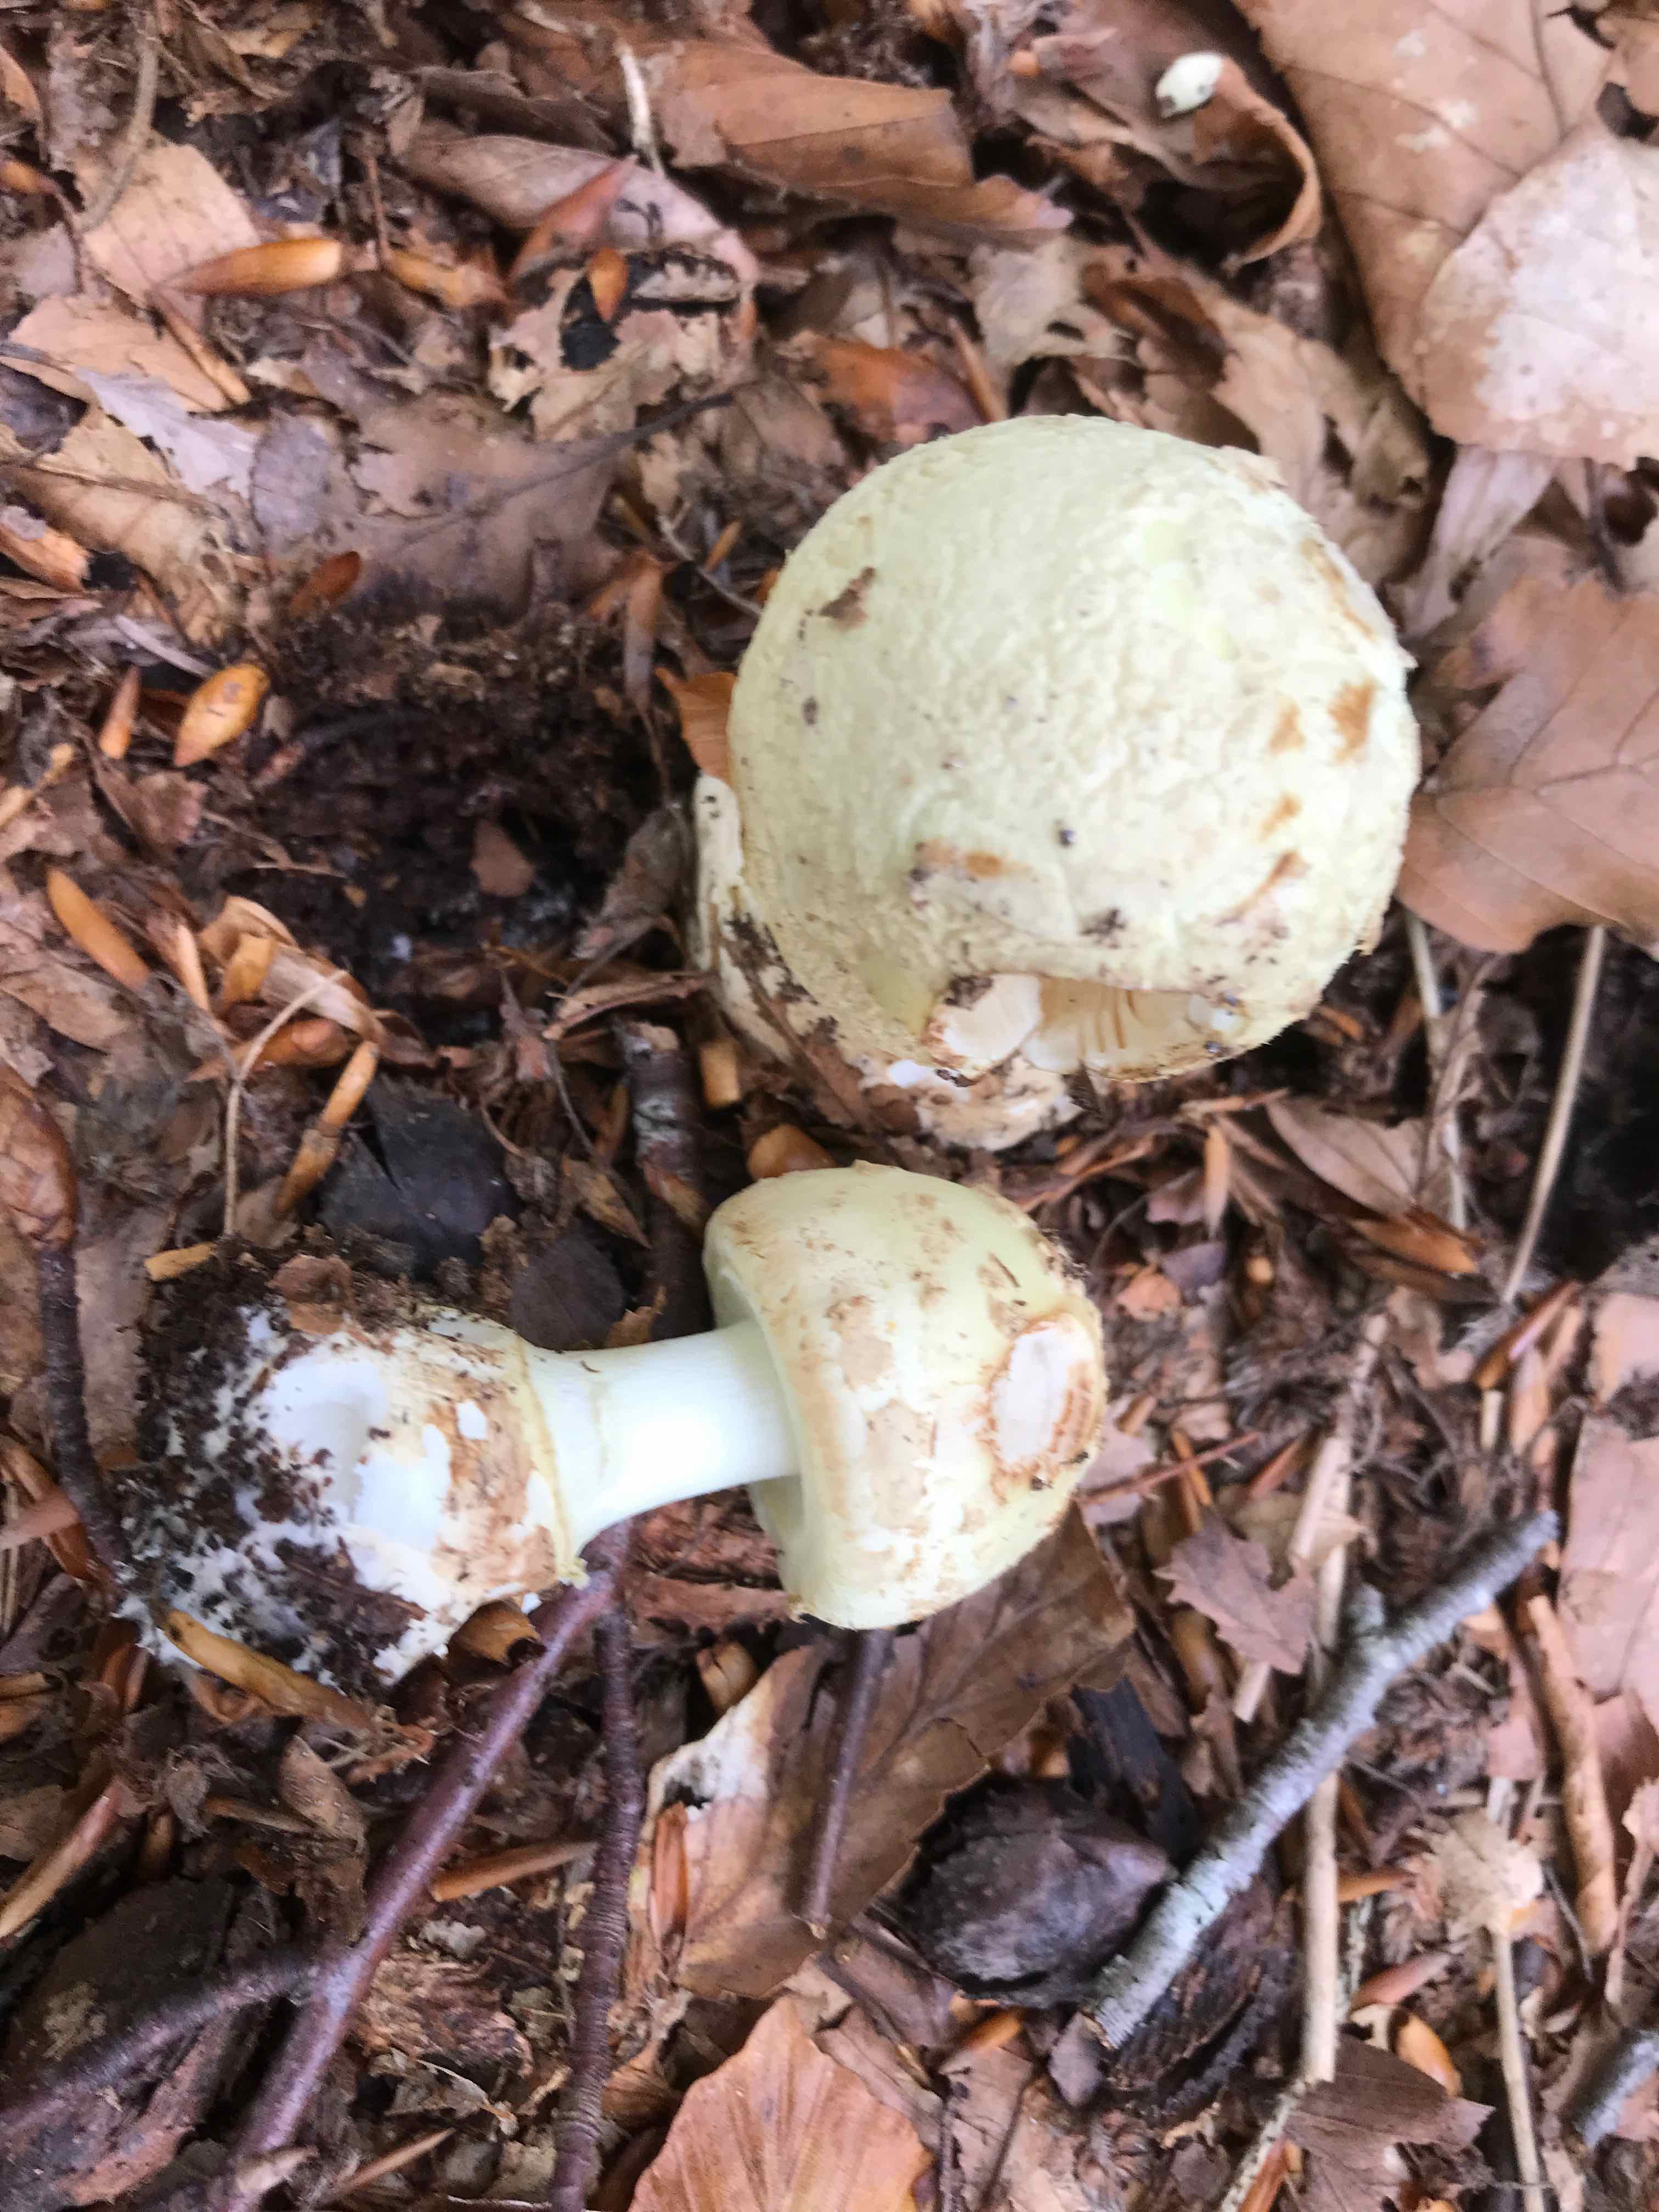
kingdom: Fungi
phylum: Basidiomycota
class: Agaricomycetes
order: Agaricales
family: Amanitaceae
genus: Amanita
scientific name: Amanita citrina
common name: kugleknoldet fluesvamp
